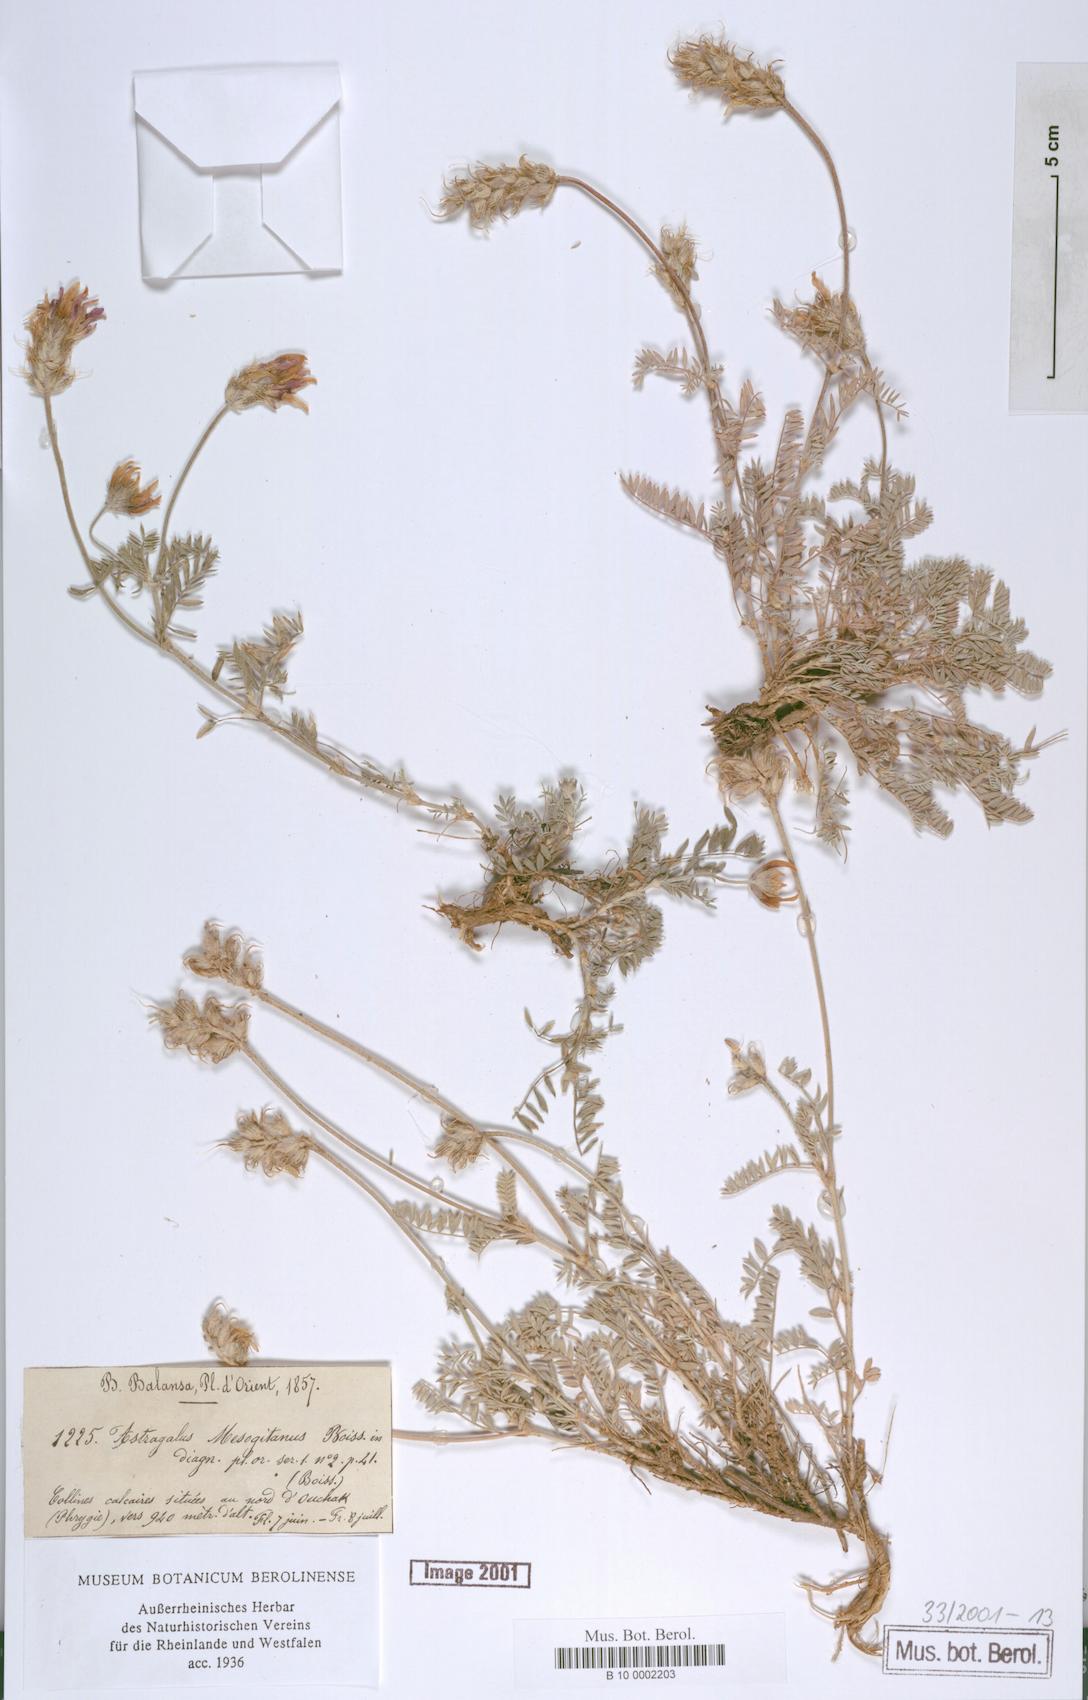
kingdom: Plantae
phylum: Tracheophyta
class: Magnoliopsida
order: Fabales
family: Fabaceae
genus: Astragalus
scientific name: Astragalus mesogitanus
